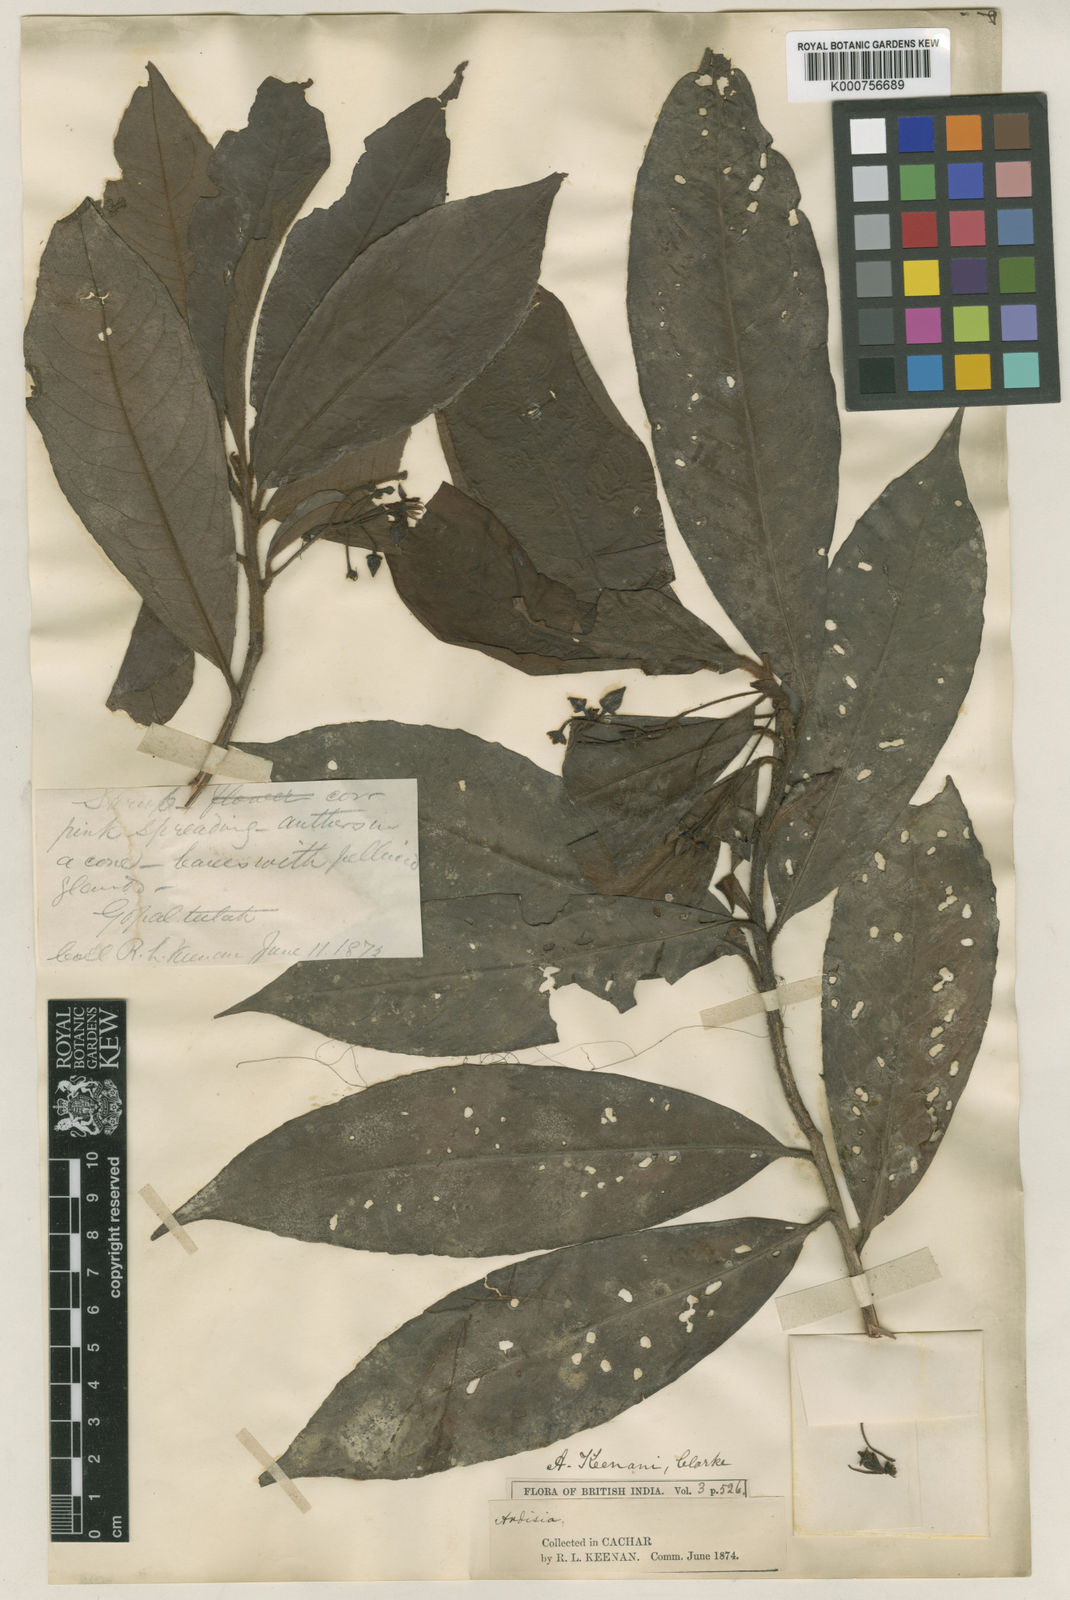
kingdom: Plantae
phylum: Tracheophyta
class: Magnoliopsida
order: Ericales
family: Primulaceae
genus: Ardisia
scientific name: Ardisia keenanii
